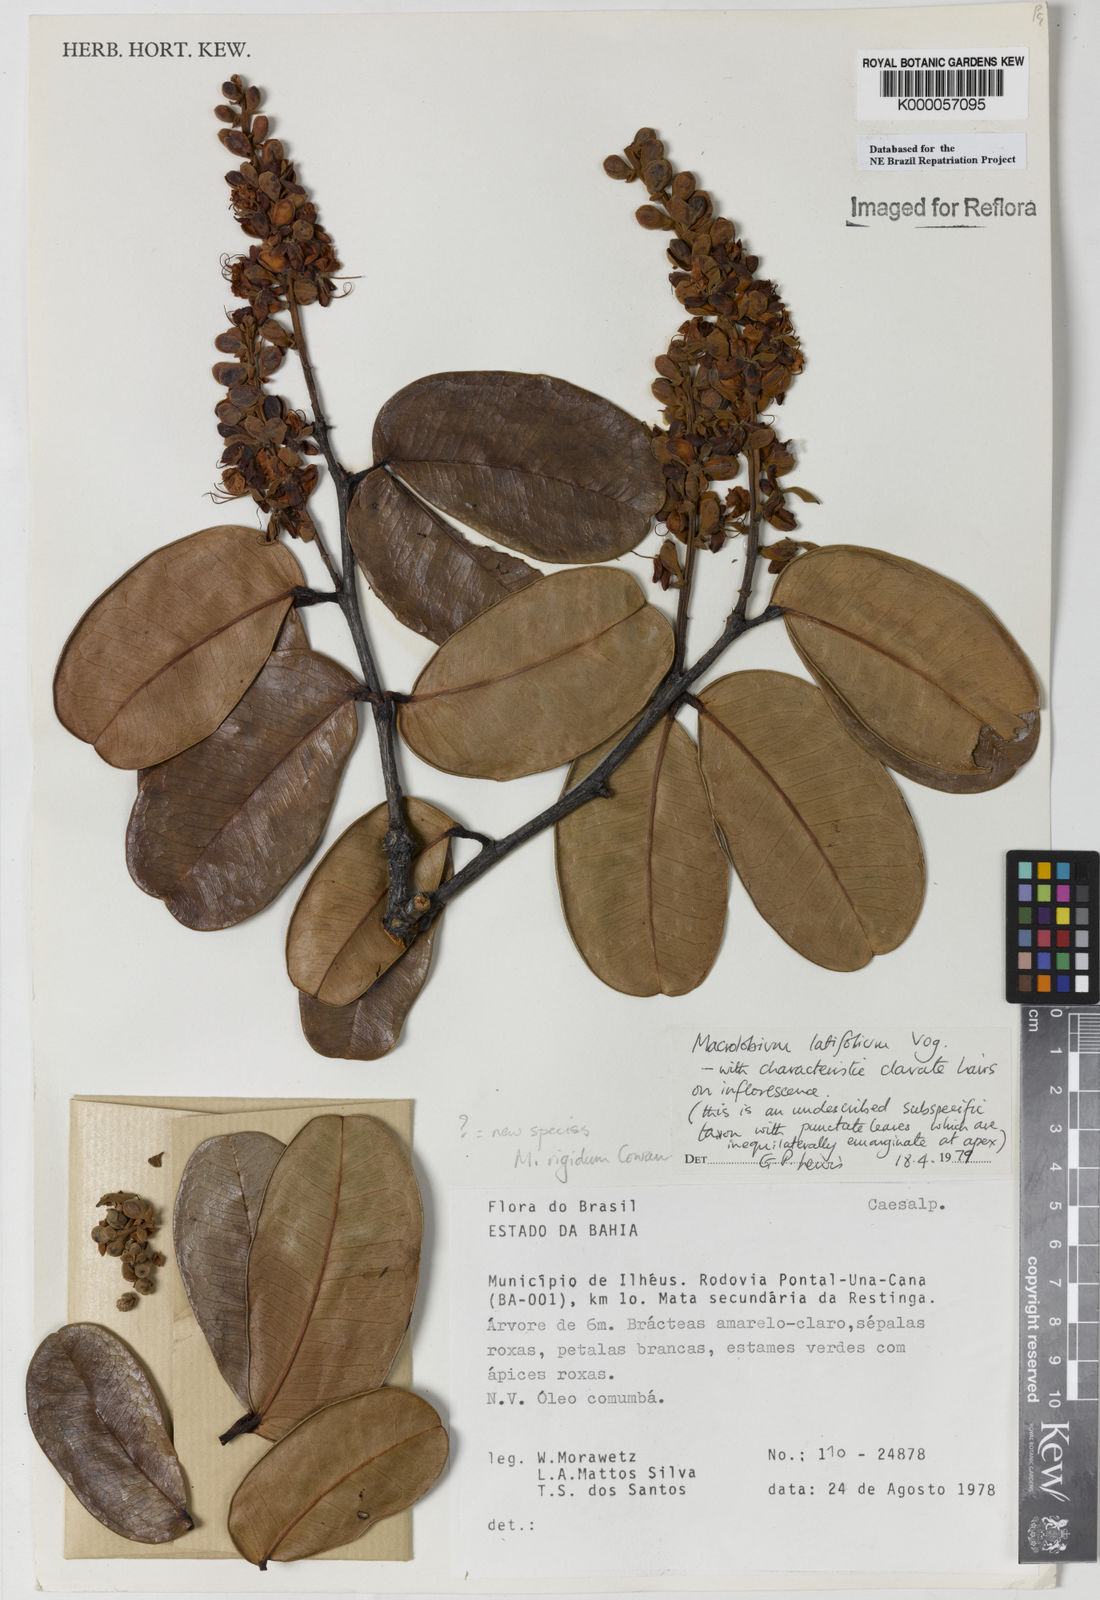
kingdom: Plantae
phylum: Tracheophyta
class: Magnoliopsida
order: Fabales
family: Fabaceae
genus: Macrolobium
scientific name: Macrolobium rigidum
